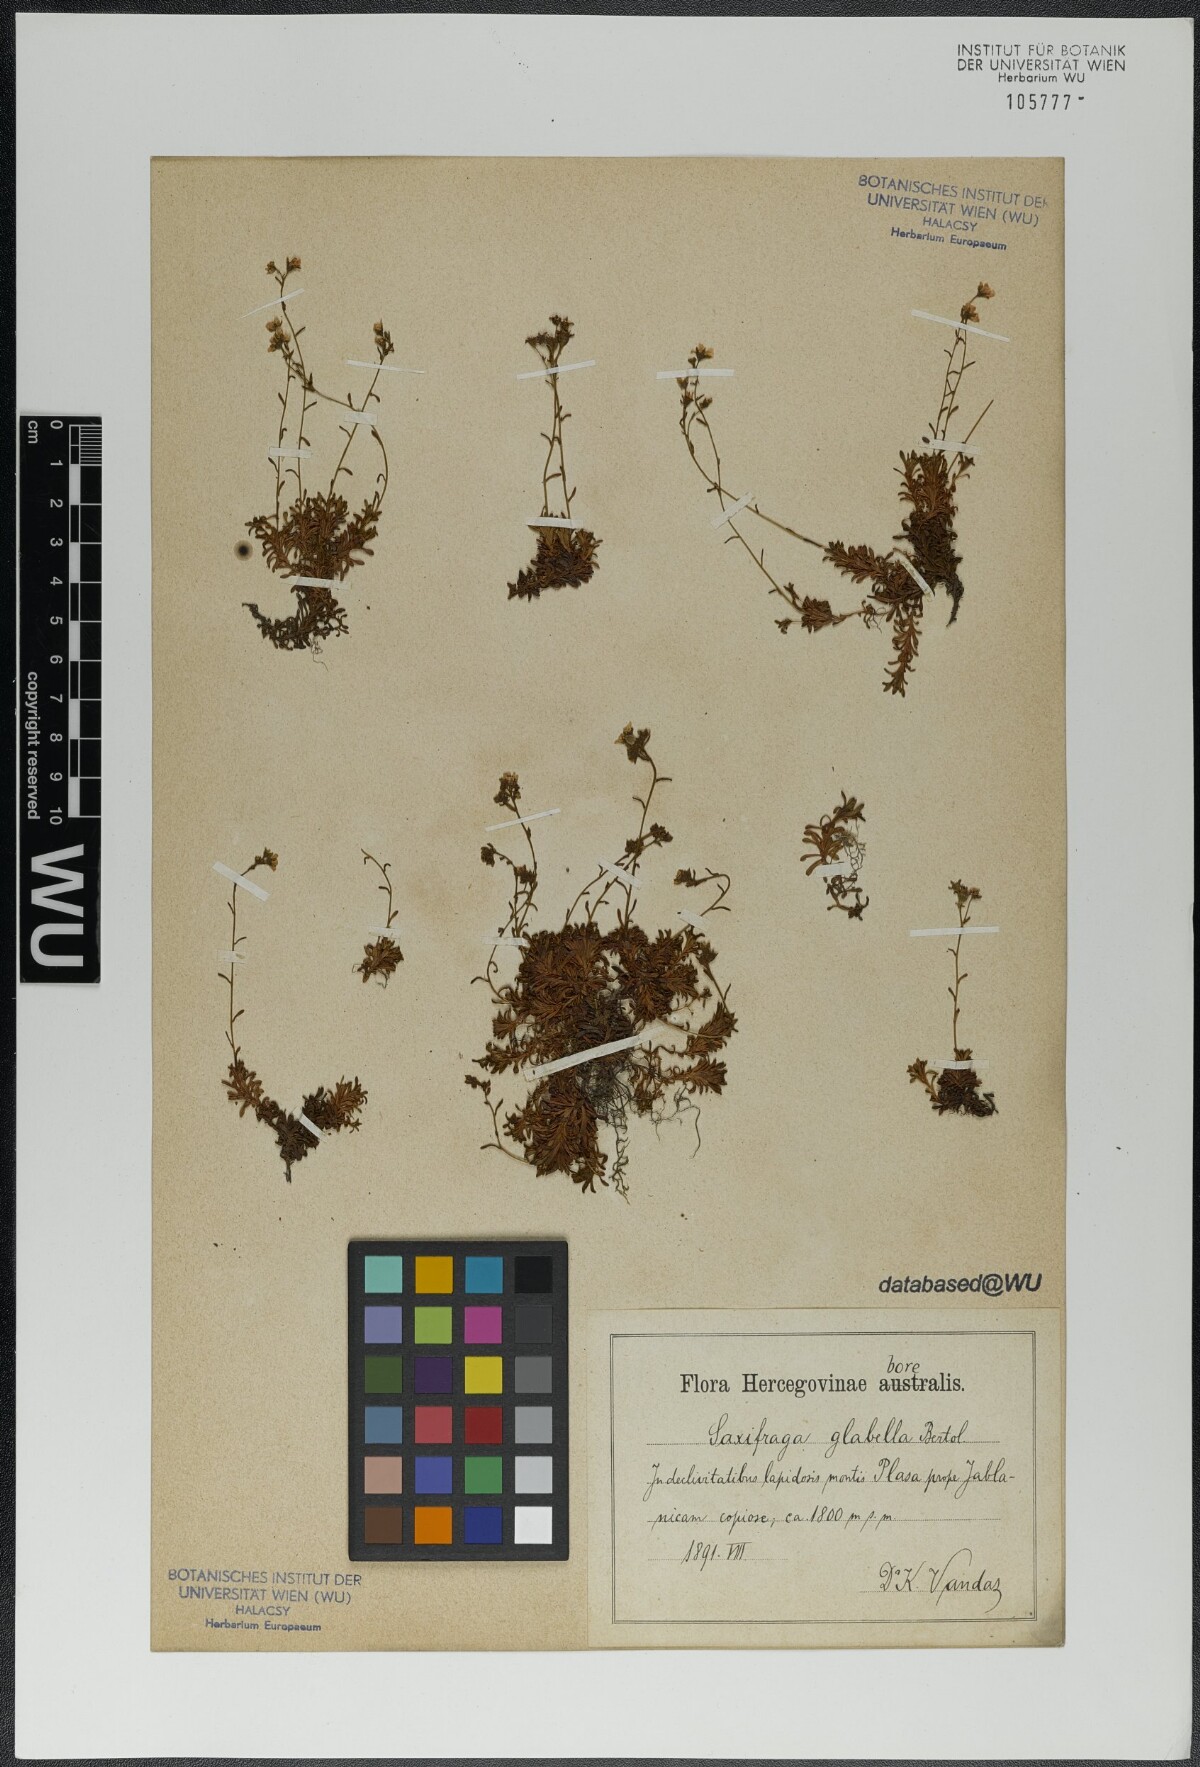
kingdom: Plantae
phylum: Tracheophyta
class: Magnoliopsida
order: Saxifragales
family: Saxifragaceae
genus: Saxifraga
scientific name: Saxifraga glabella
